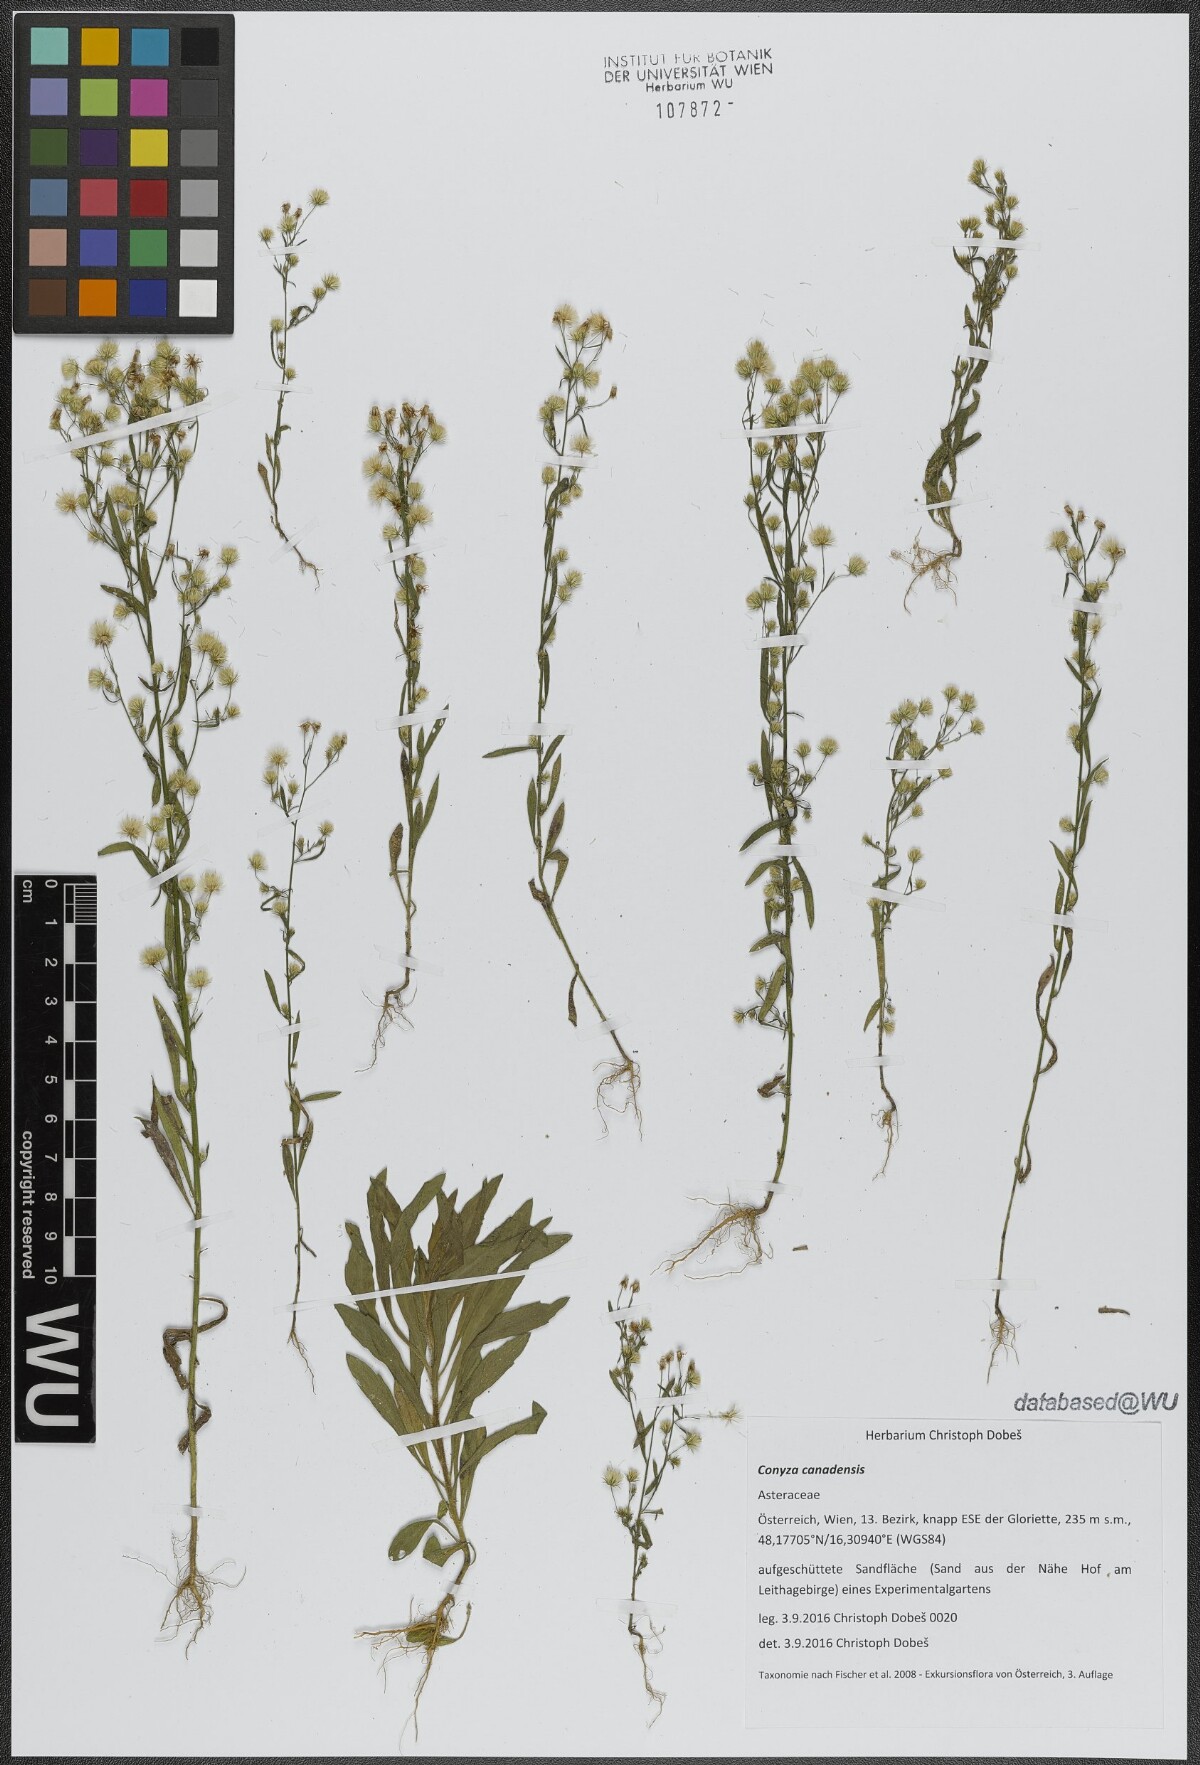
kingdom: Plantae
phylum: Tracheophyta
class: Magnoliopsida
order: Asterales
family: Asteraceae
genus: Erigeron
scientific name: Erigeron canadensis
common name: Canadian fleabane
